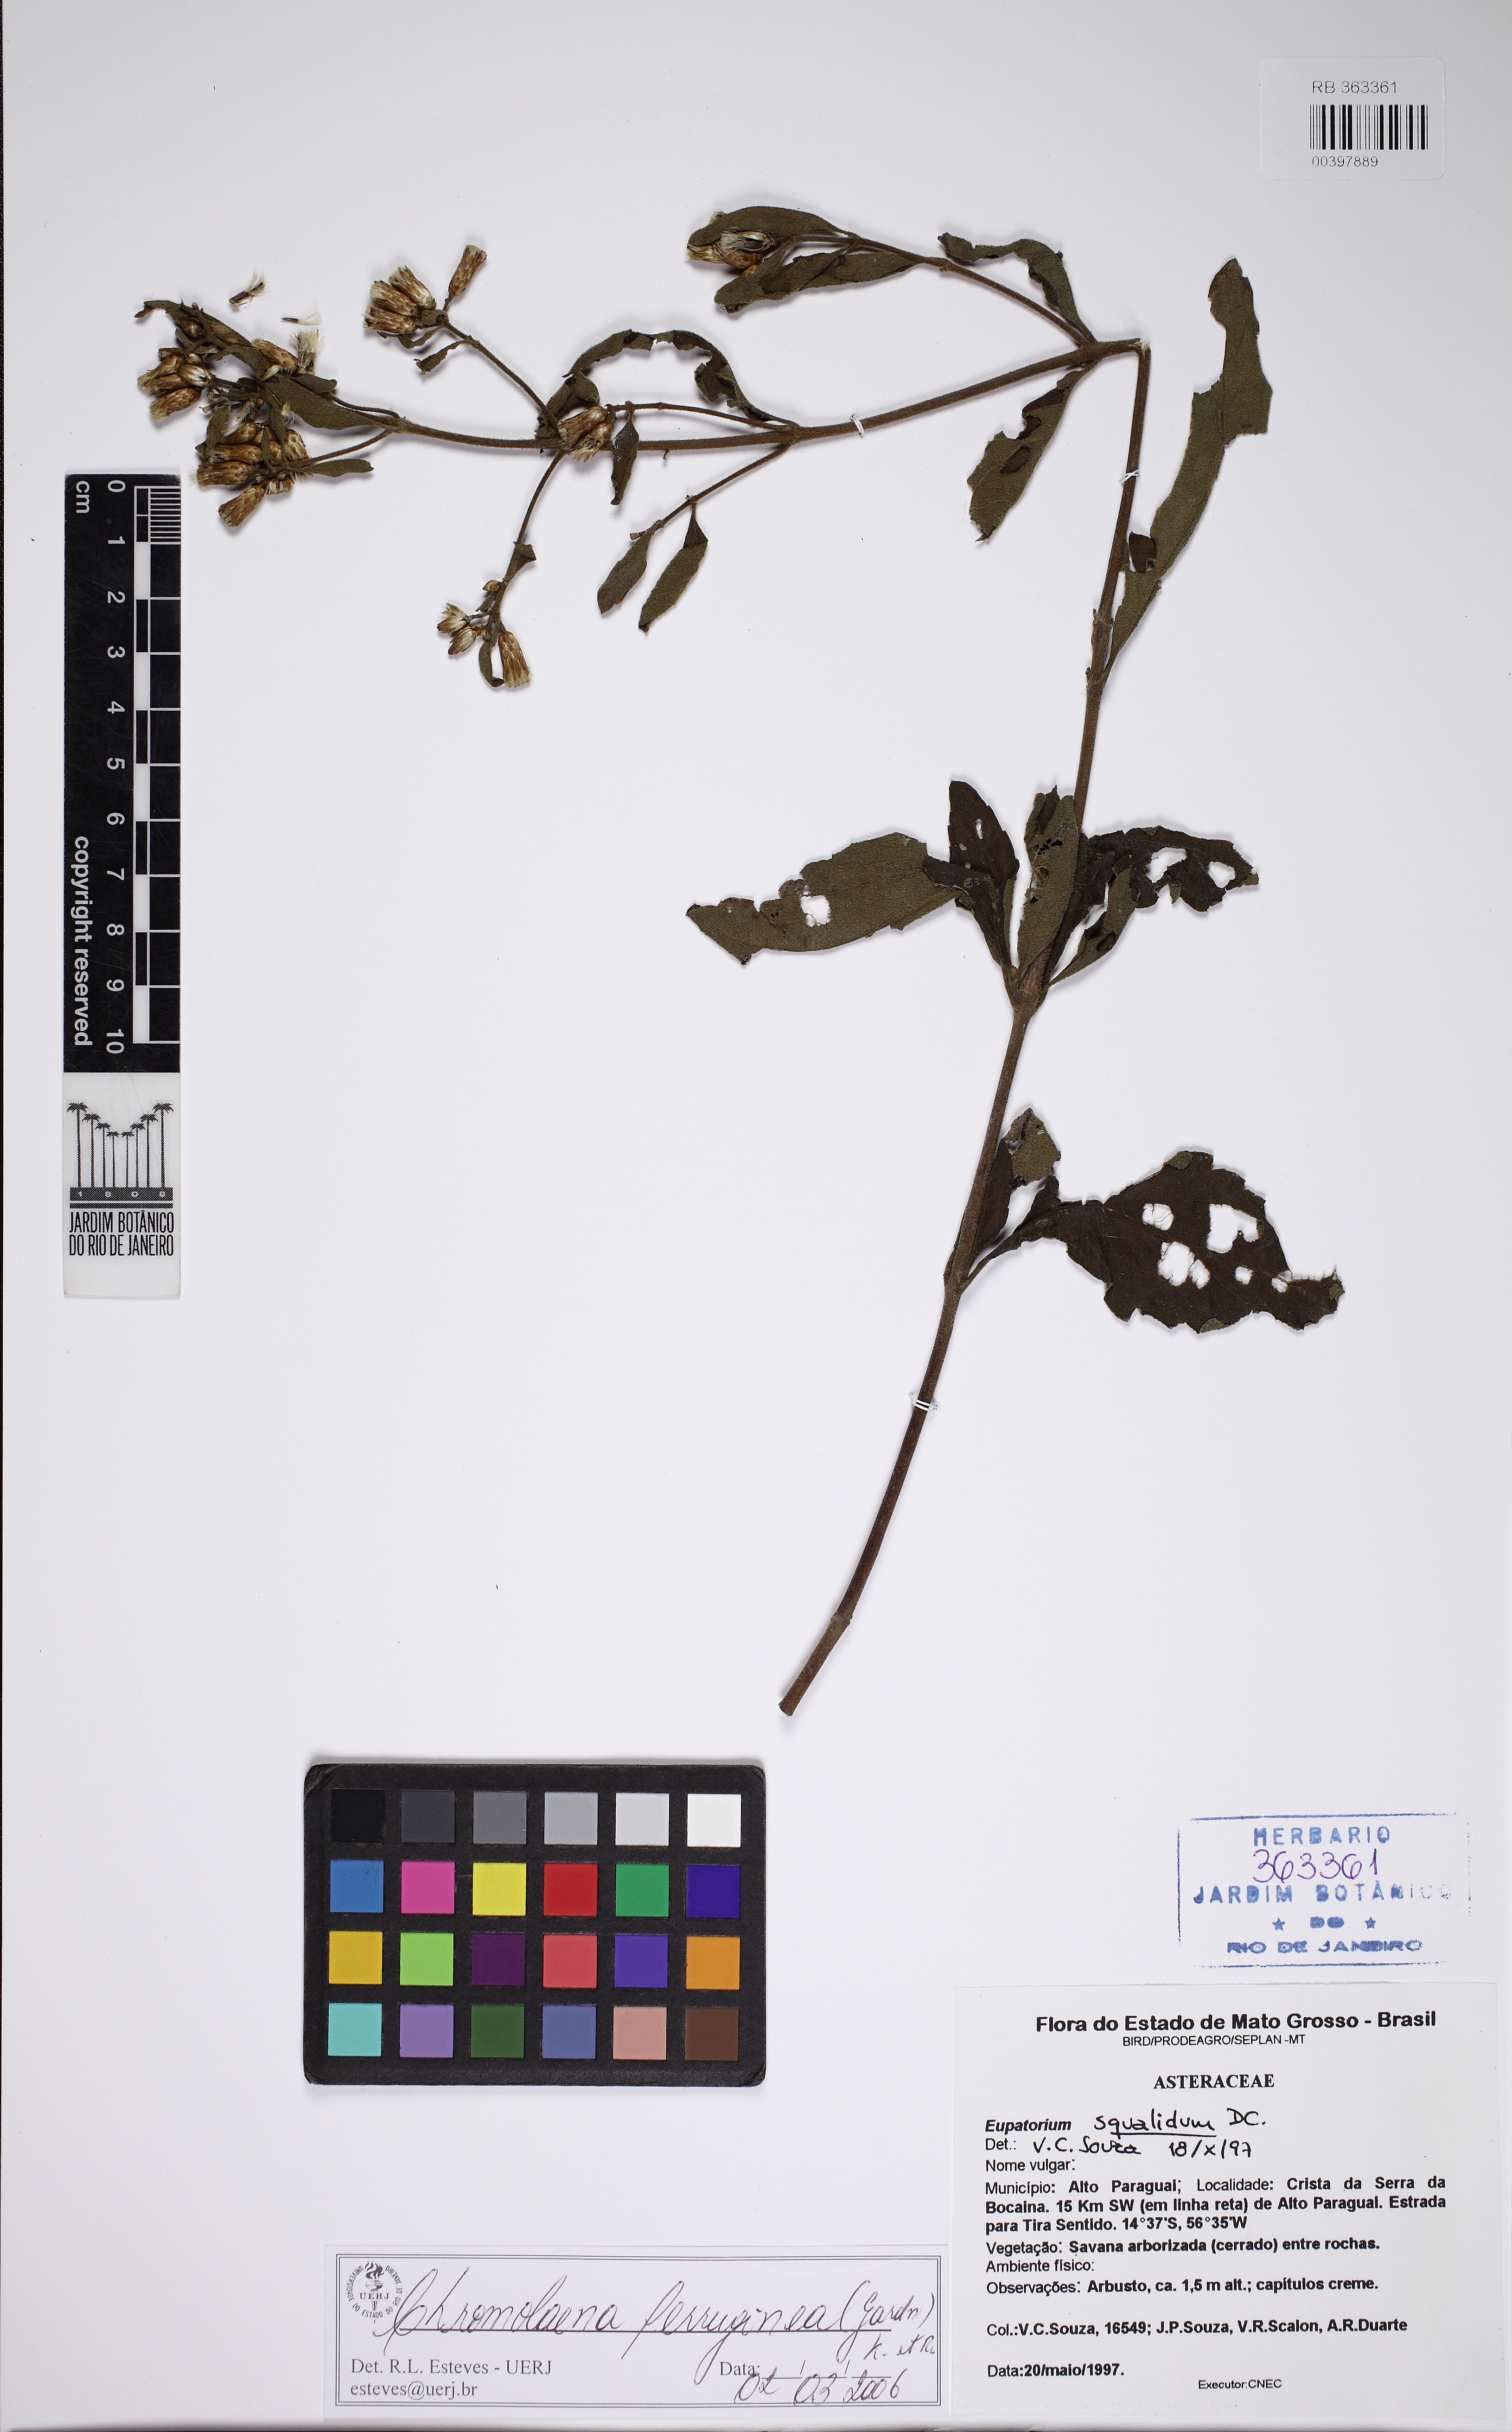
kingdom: Plantae
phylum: Tracheophyta
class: Magnoliopsida
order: Asterales
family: Asteraceae
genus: Chromolaena
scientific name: Chromolaena ferruginea
